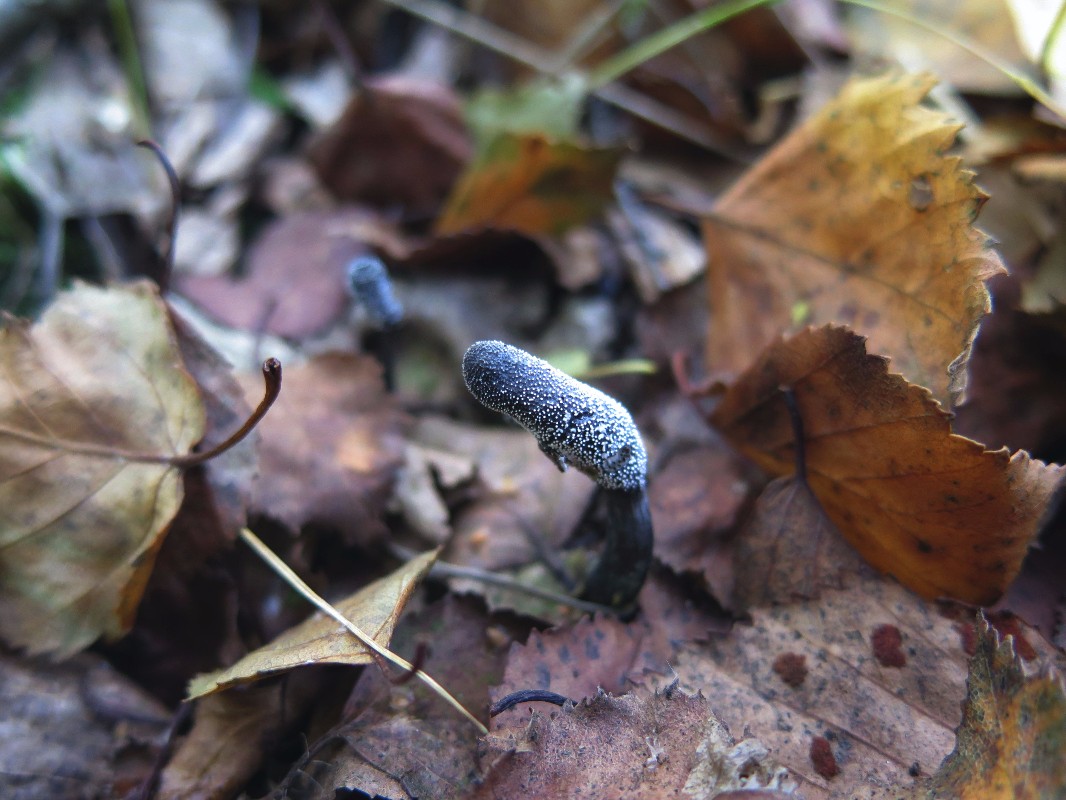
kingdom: Fungi
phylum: Ascomycota
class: Sordariomycetes
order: Hypocreales
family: Ophiocordycipitaceae
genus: Tolypocladium
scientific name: Tolypocladium ophioglossoides
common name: slank snyltekølle
